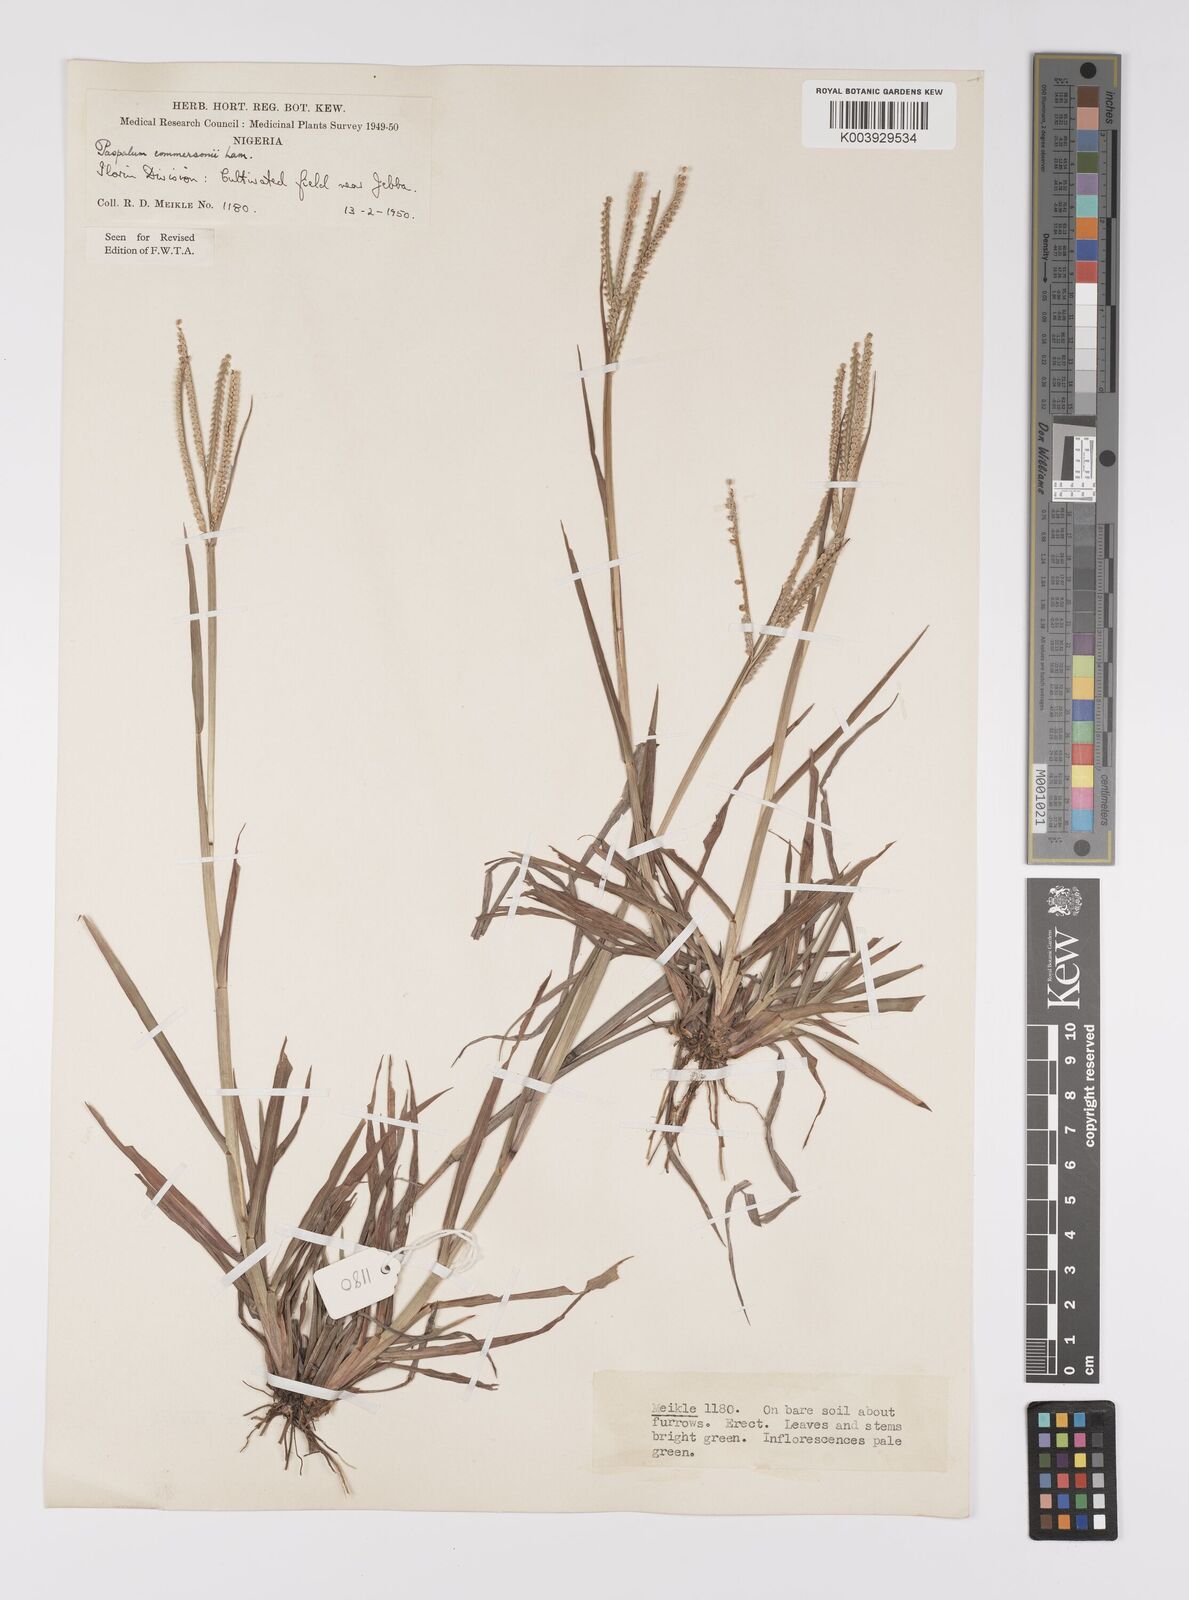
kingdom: Plantae
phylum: Tracheophyta
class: Liliopsida
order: Poales
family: Poaceae
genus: Paspalum
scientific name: Paspalum scrobiculatum
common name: Kodo millet
